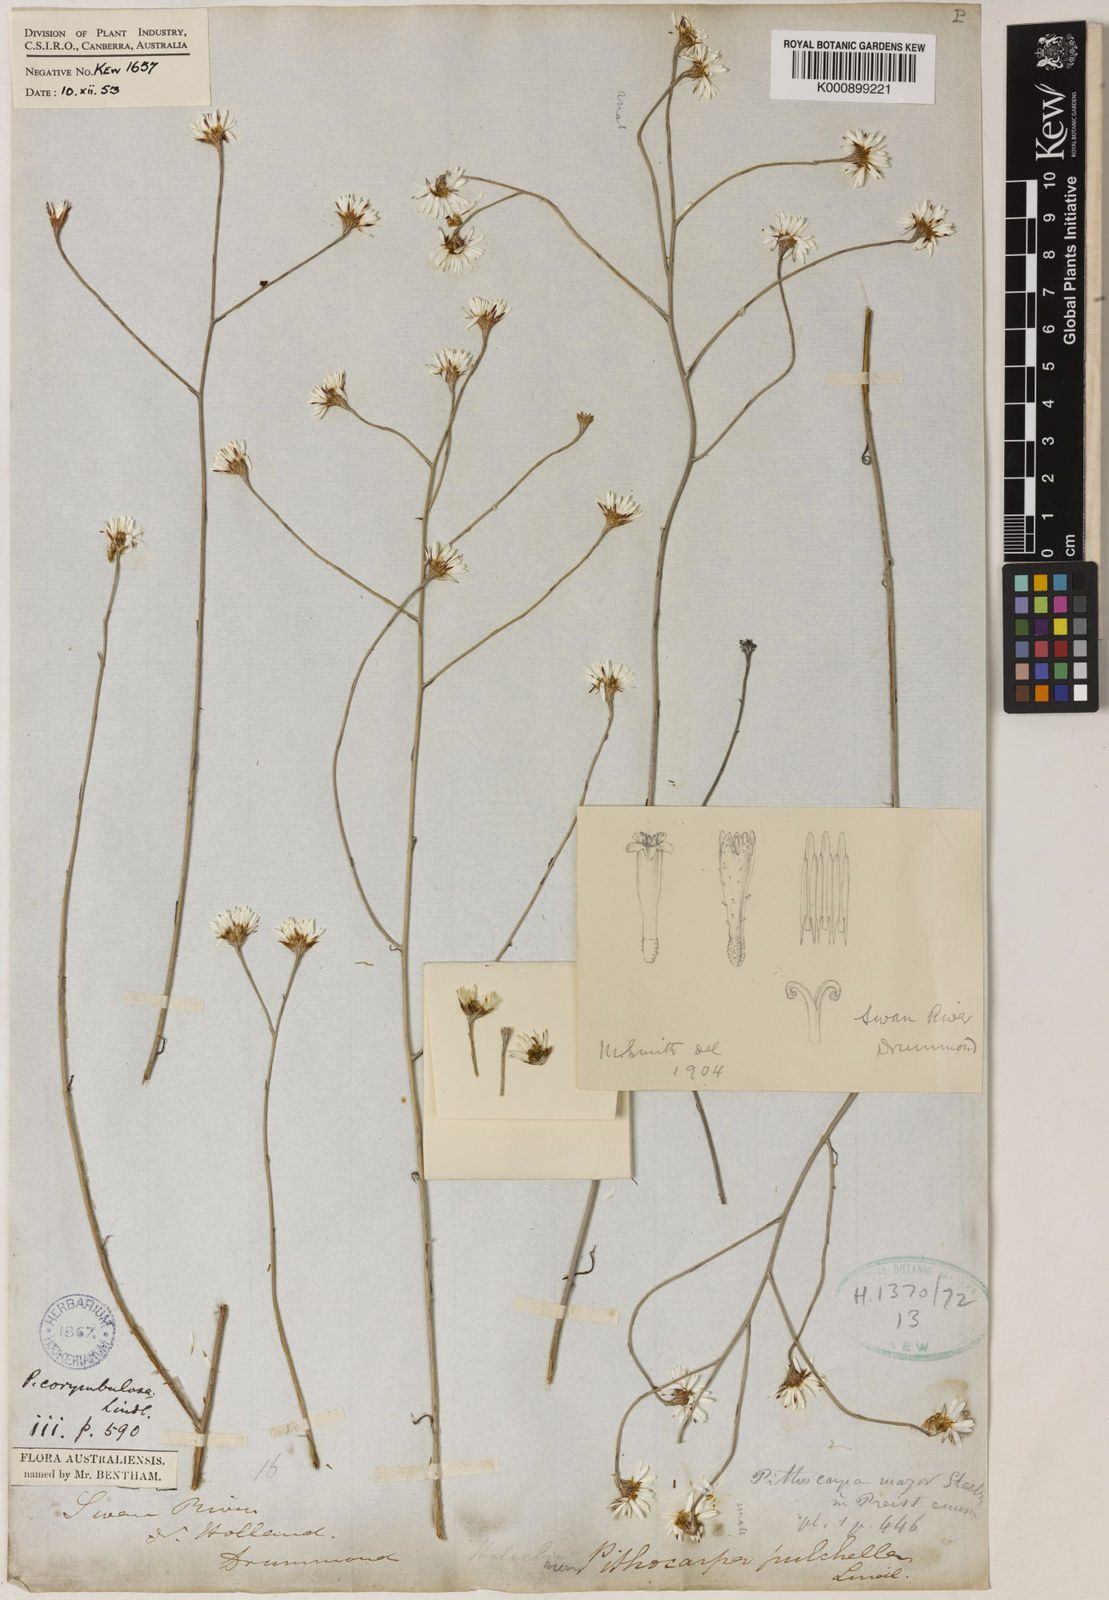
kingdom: Plantae
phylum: Tracheophyta
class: Magnoliopsida
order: Asterales
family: Asteraceae
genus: Pithocarpa
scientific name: Pithocarpa pulchella
